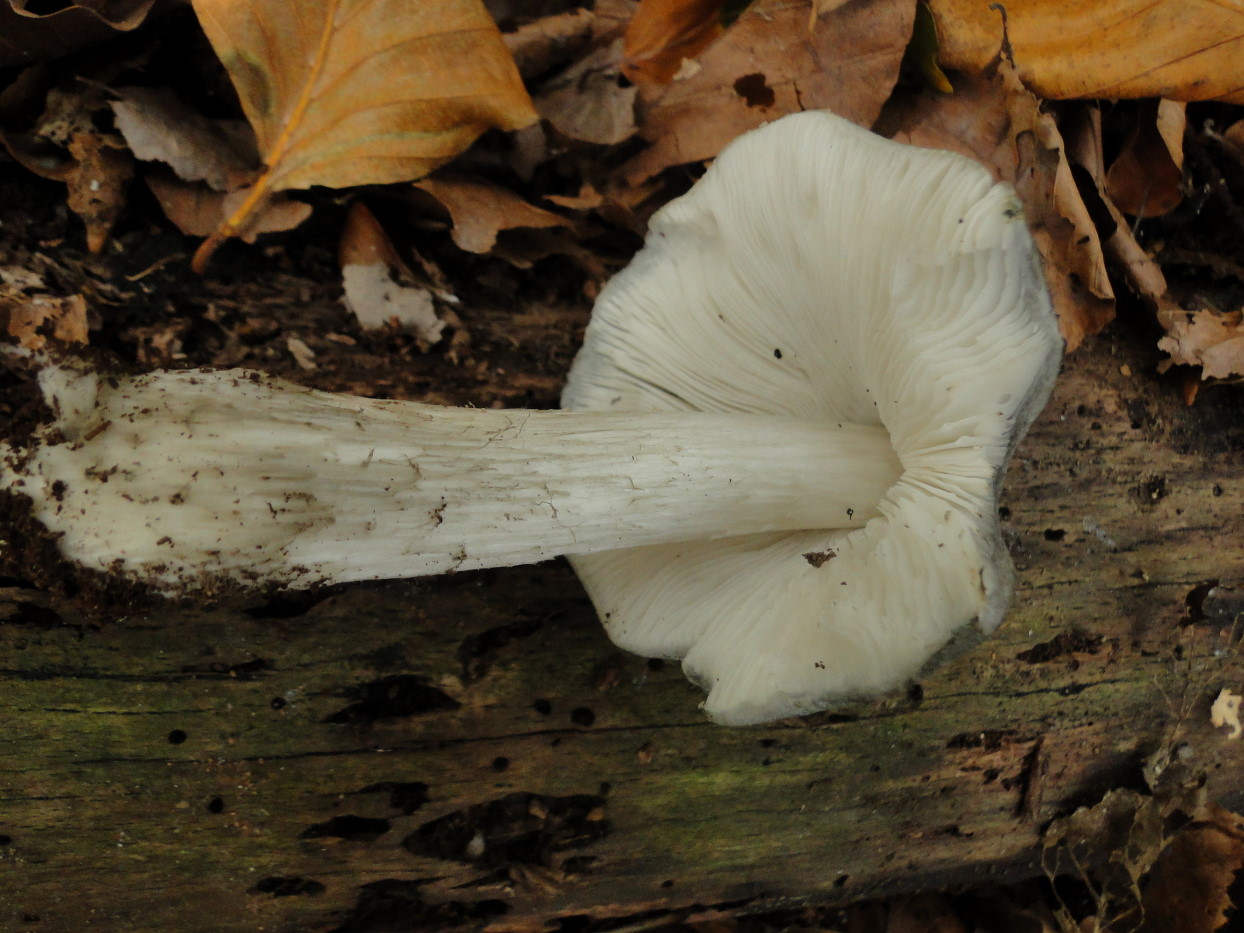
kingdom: Fungi
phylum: Basidiomycota
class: Agaricomycetes
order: Agaricales
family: Pluteaceae
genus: Pluteus
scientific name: Pluteus salicinus
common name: stiv skærmhat
